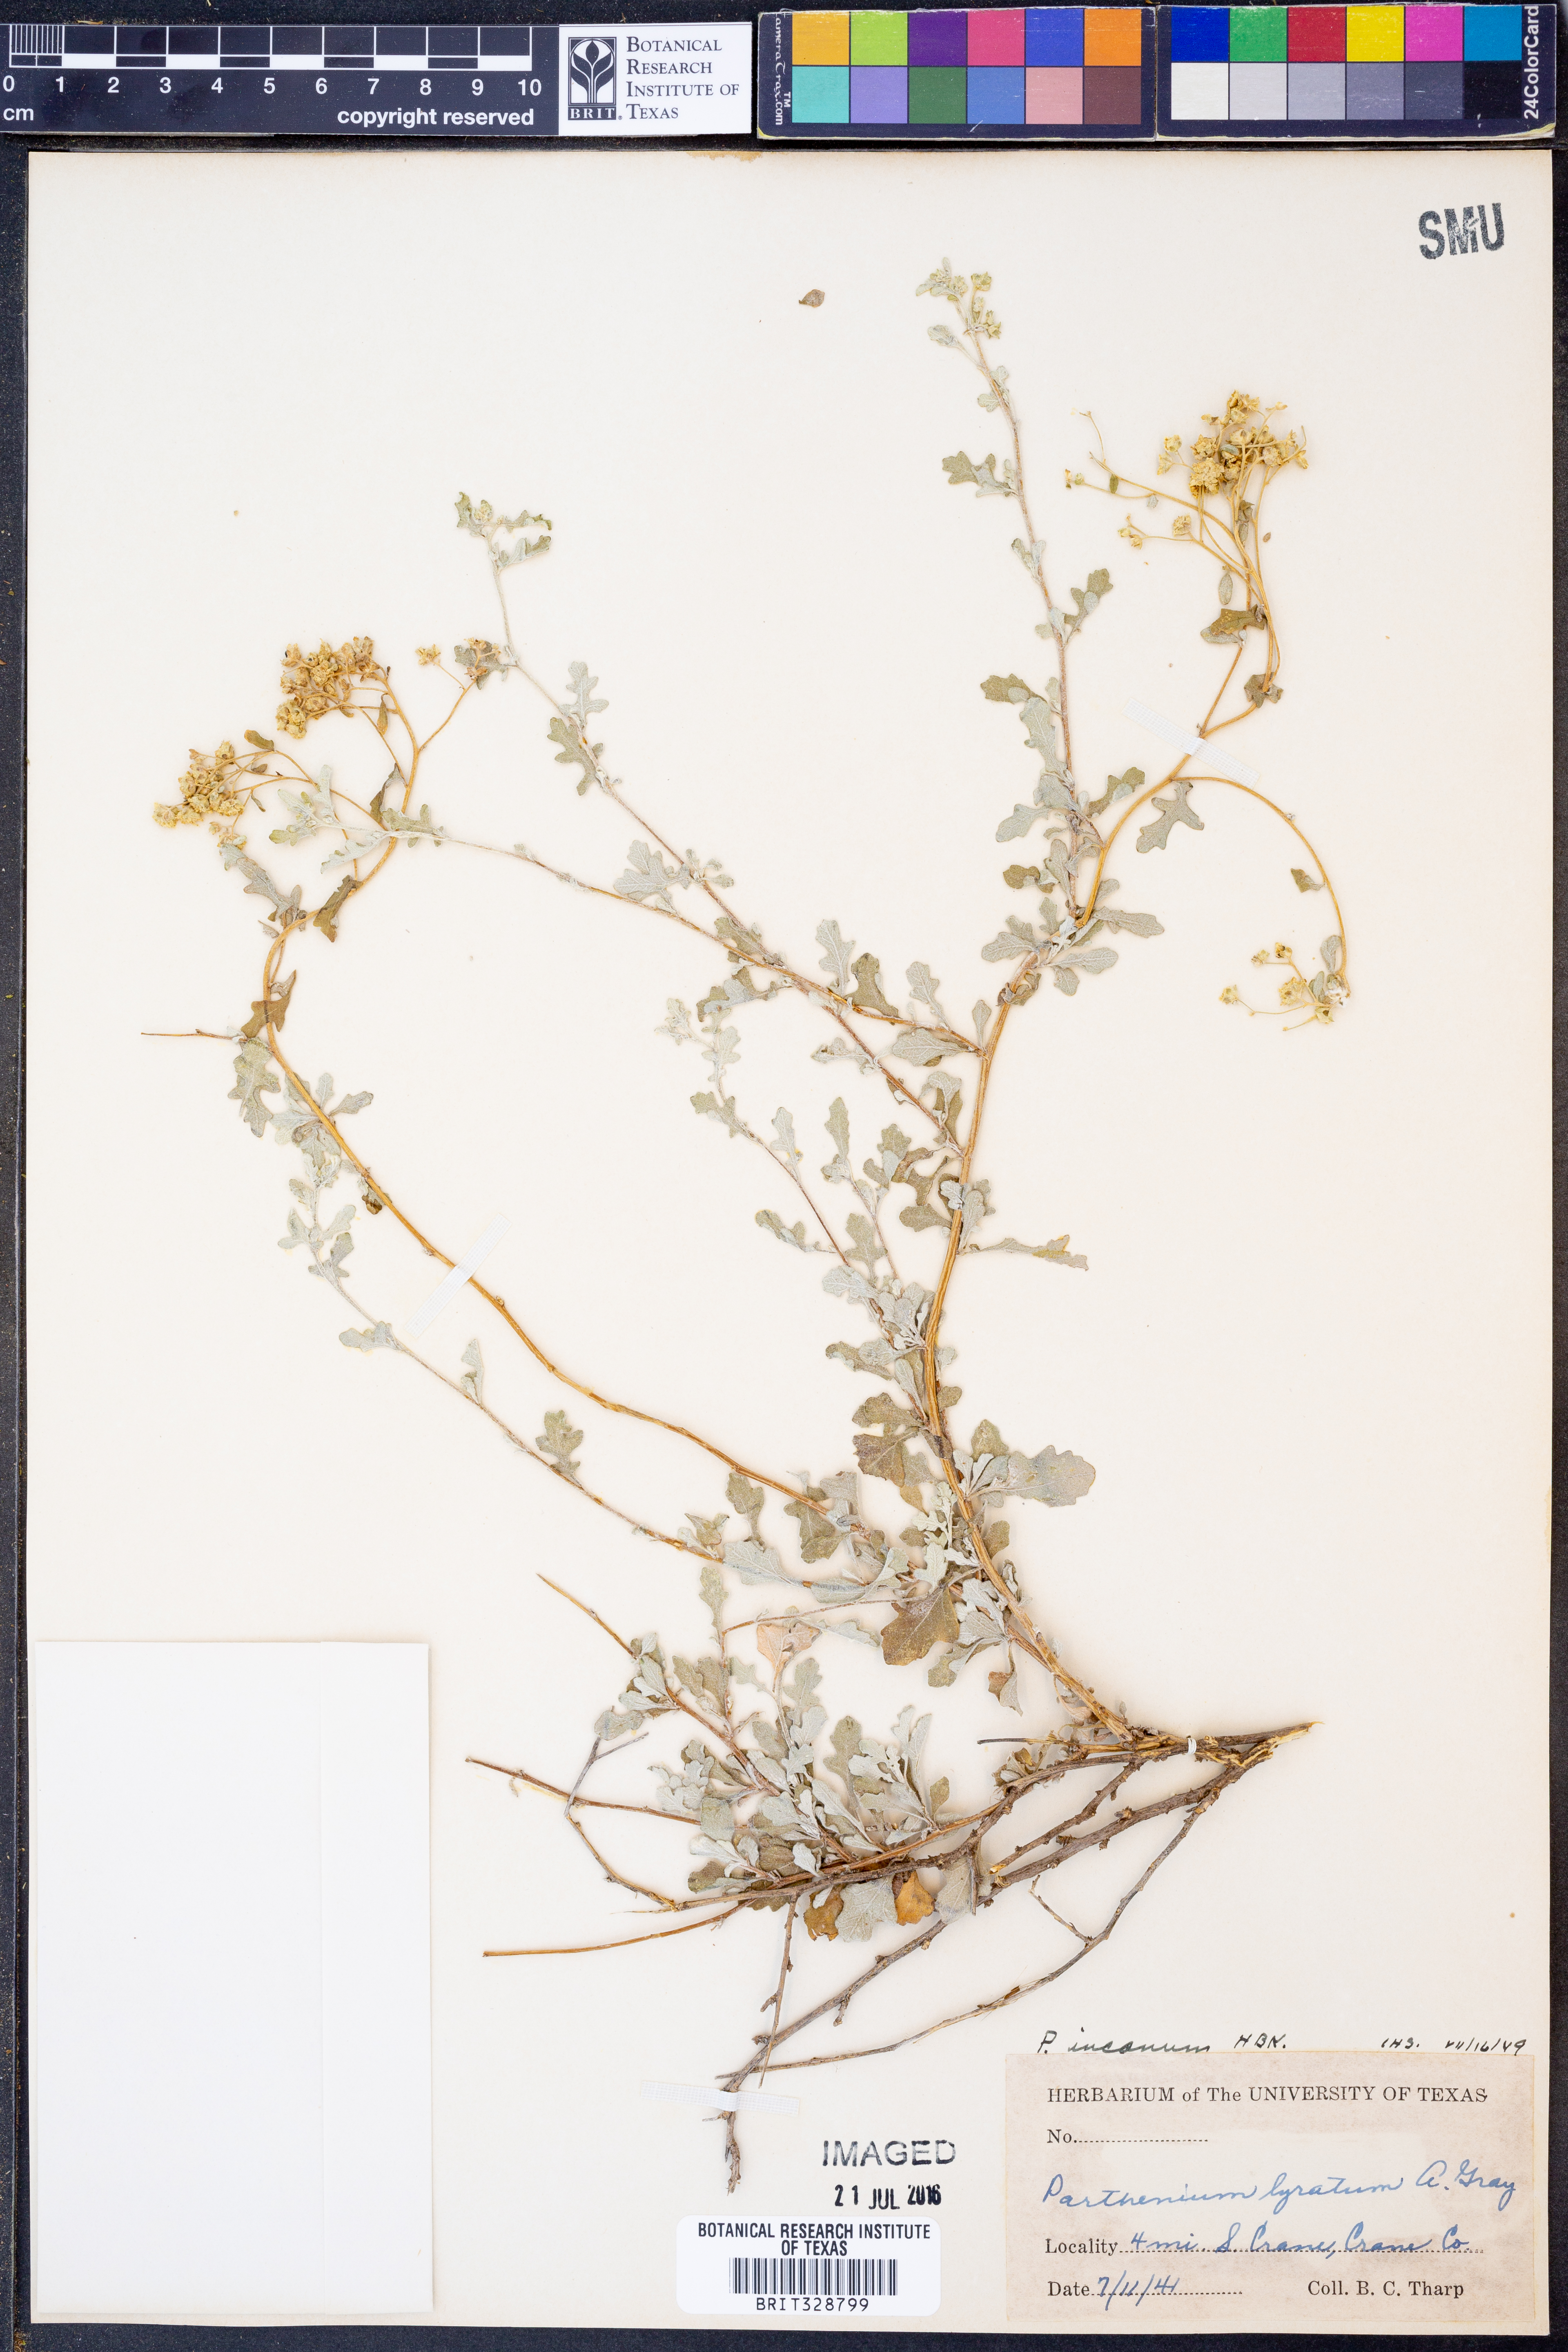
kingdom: Plantae
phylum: Tracheophyta
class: Magnoliopsida
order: Asterales
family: Asteraceae
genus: Parthenium
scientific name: Parthenium incanum
